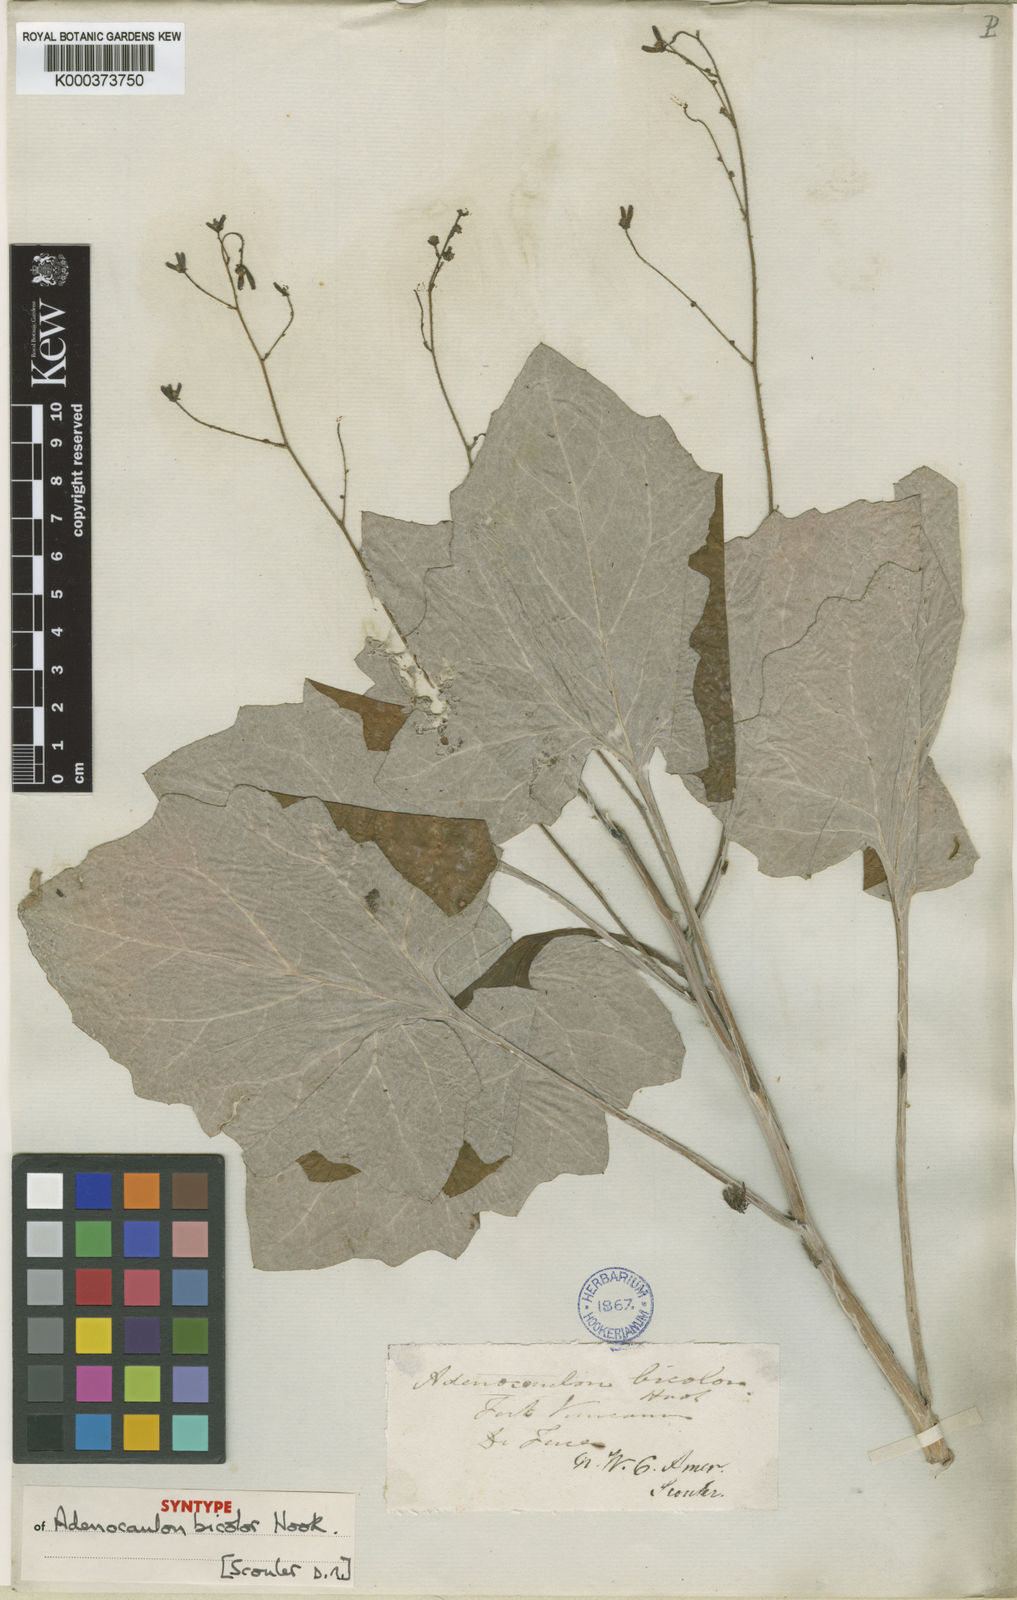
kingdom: Plantae
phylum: Tracheophyta
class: Magnoliopsida
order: Asterales
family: Asteraceae
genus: Adenocaulon
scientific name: Adenocaulon bicolor
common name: Trailplant
